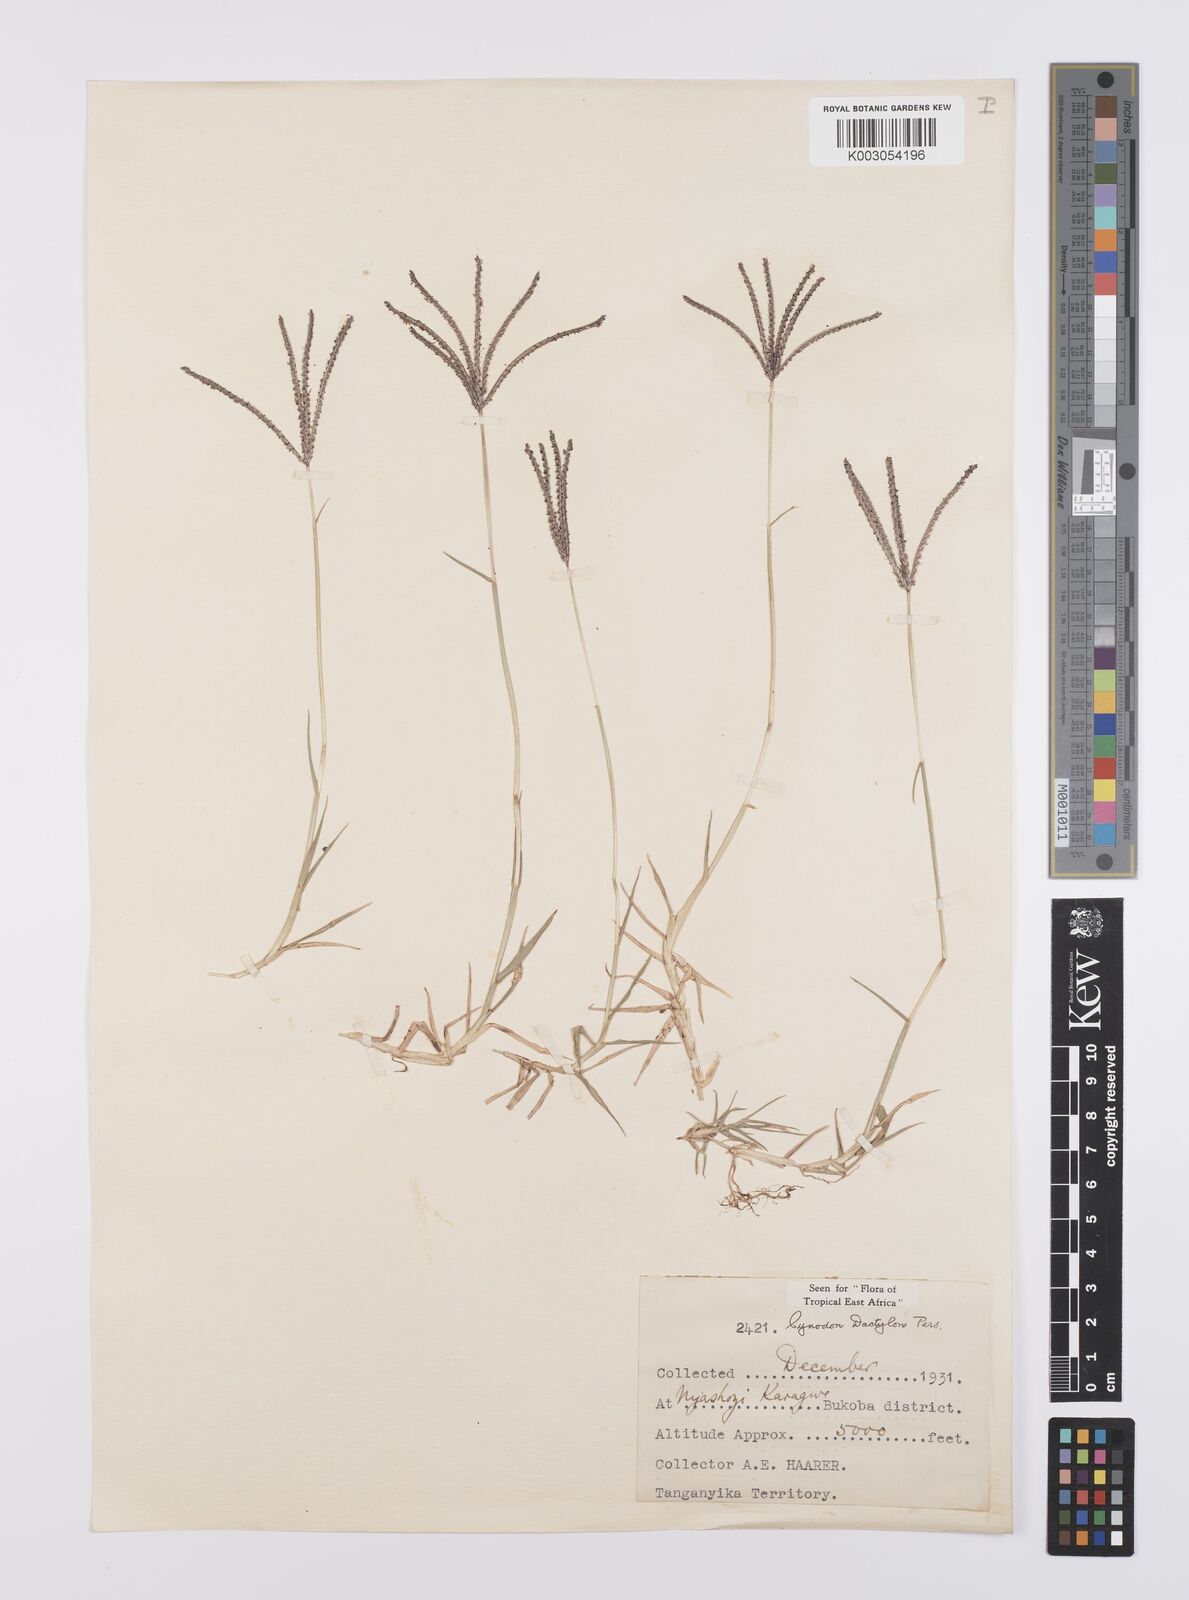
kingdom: Plantae
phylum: Tracheophyta
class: Liliopsida
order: Poales
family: Poaceae
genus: Cynodon
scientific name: Cynodon dactylon
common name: Bermuda grass
